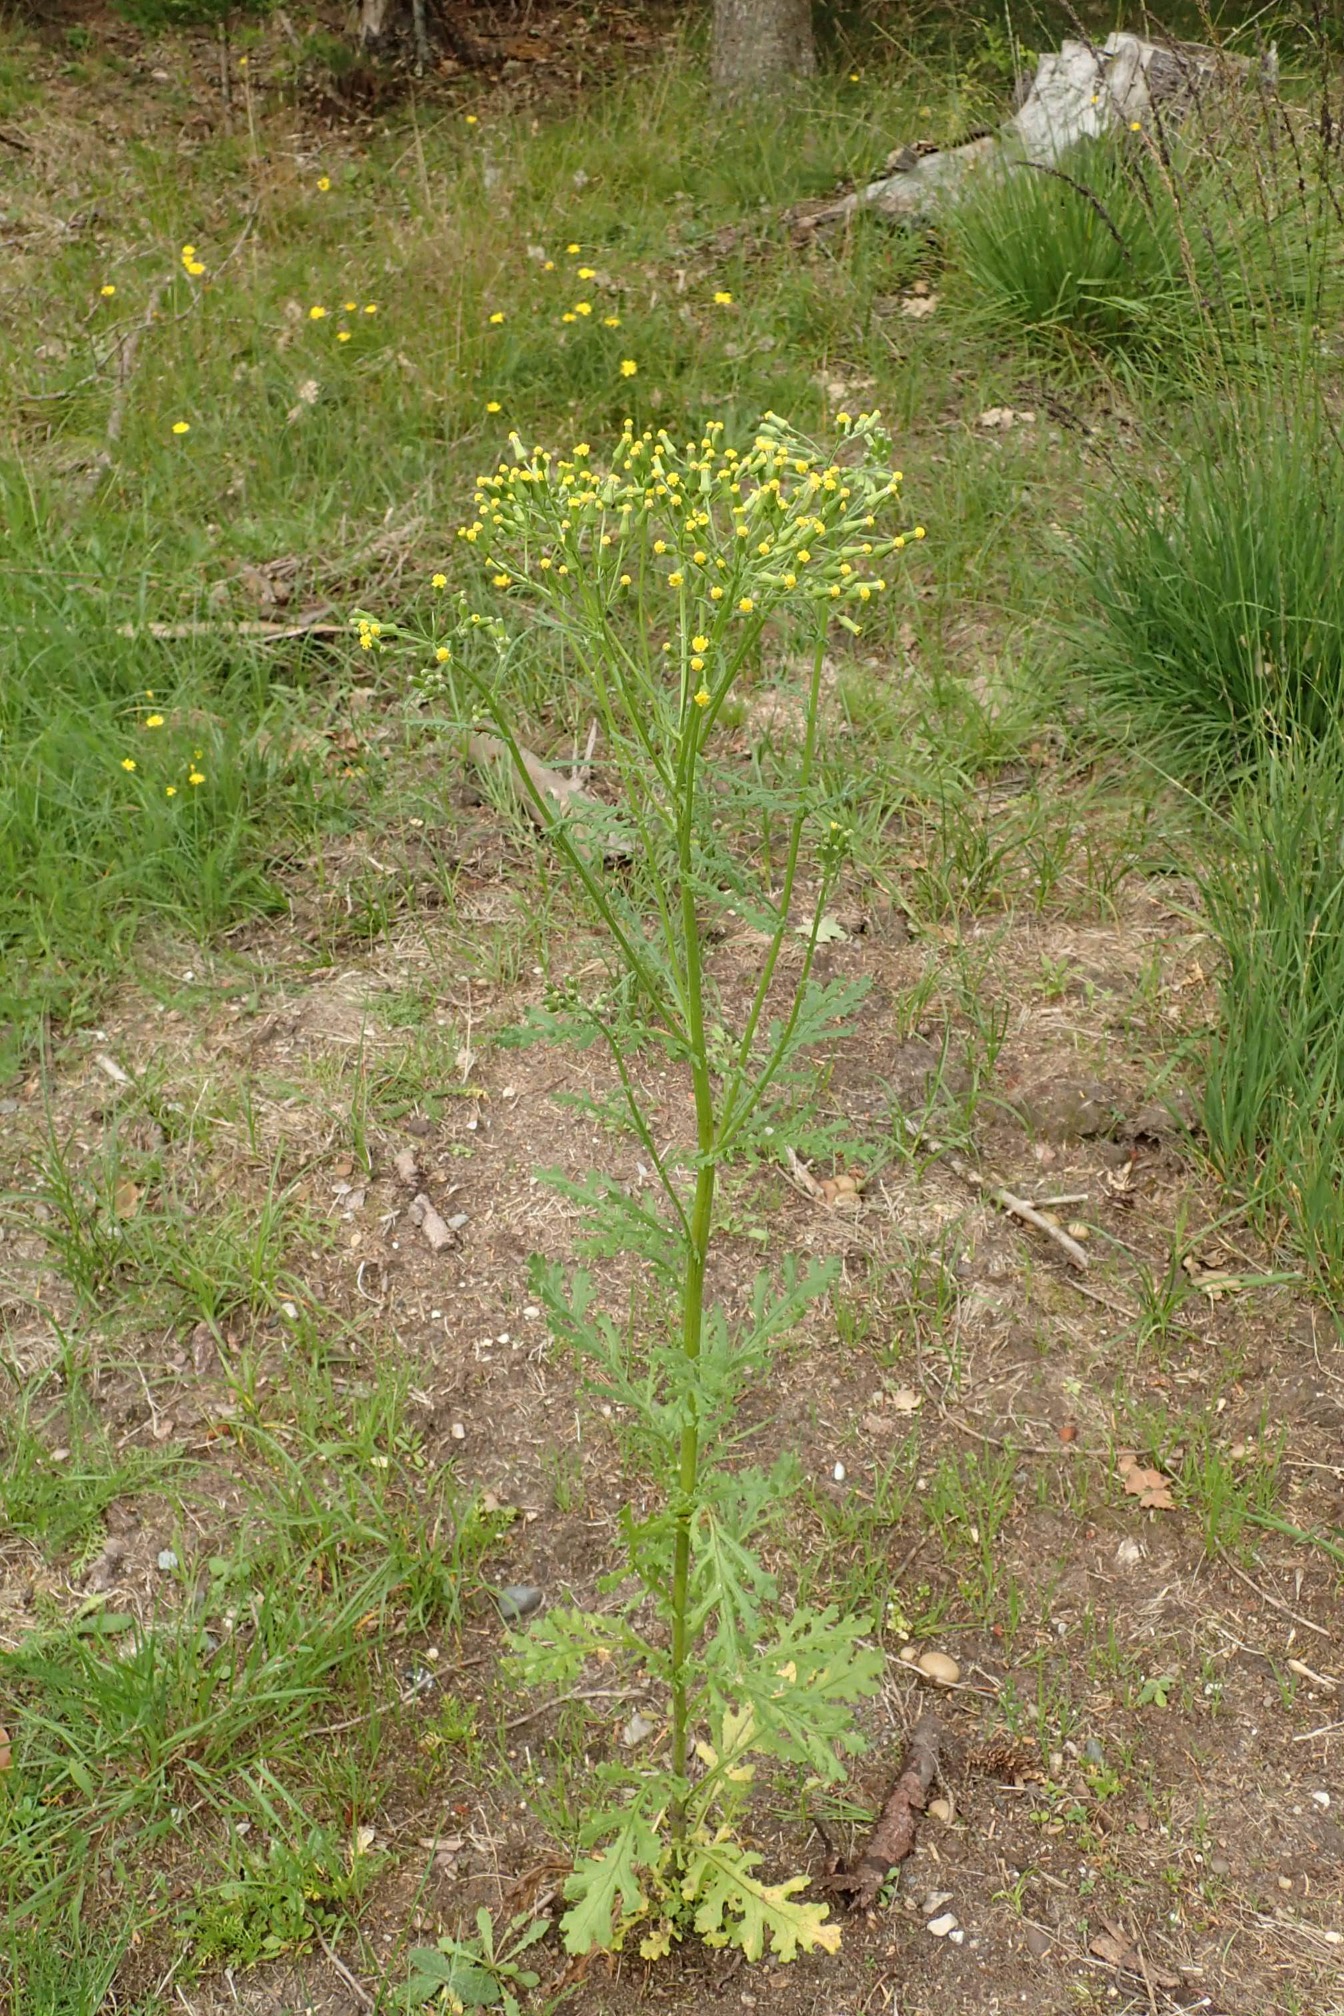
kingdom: Plantae
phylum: Tracheophyta
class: Magnoliopsida
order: Asterales
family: Asteraceae
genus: Senecio
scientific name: Senecio sylvaticus
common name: Skov-brandbæger
